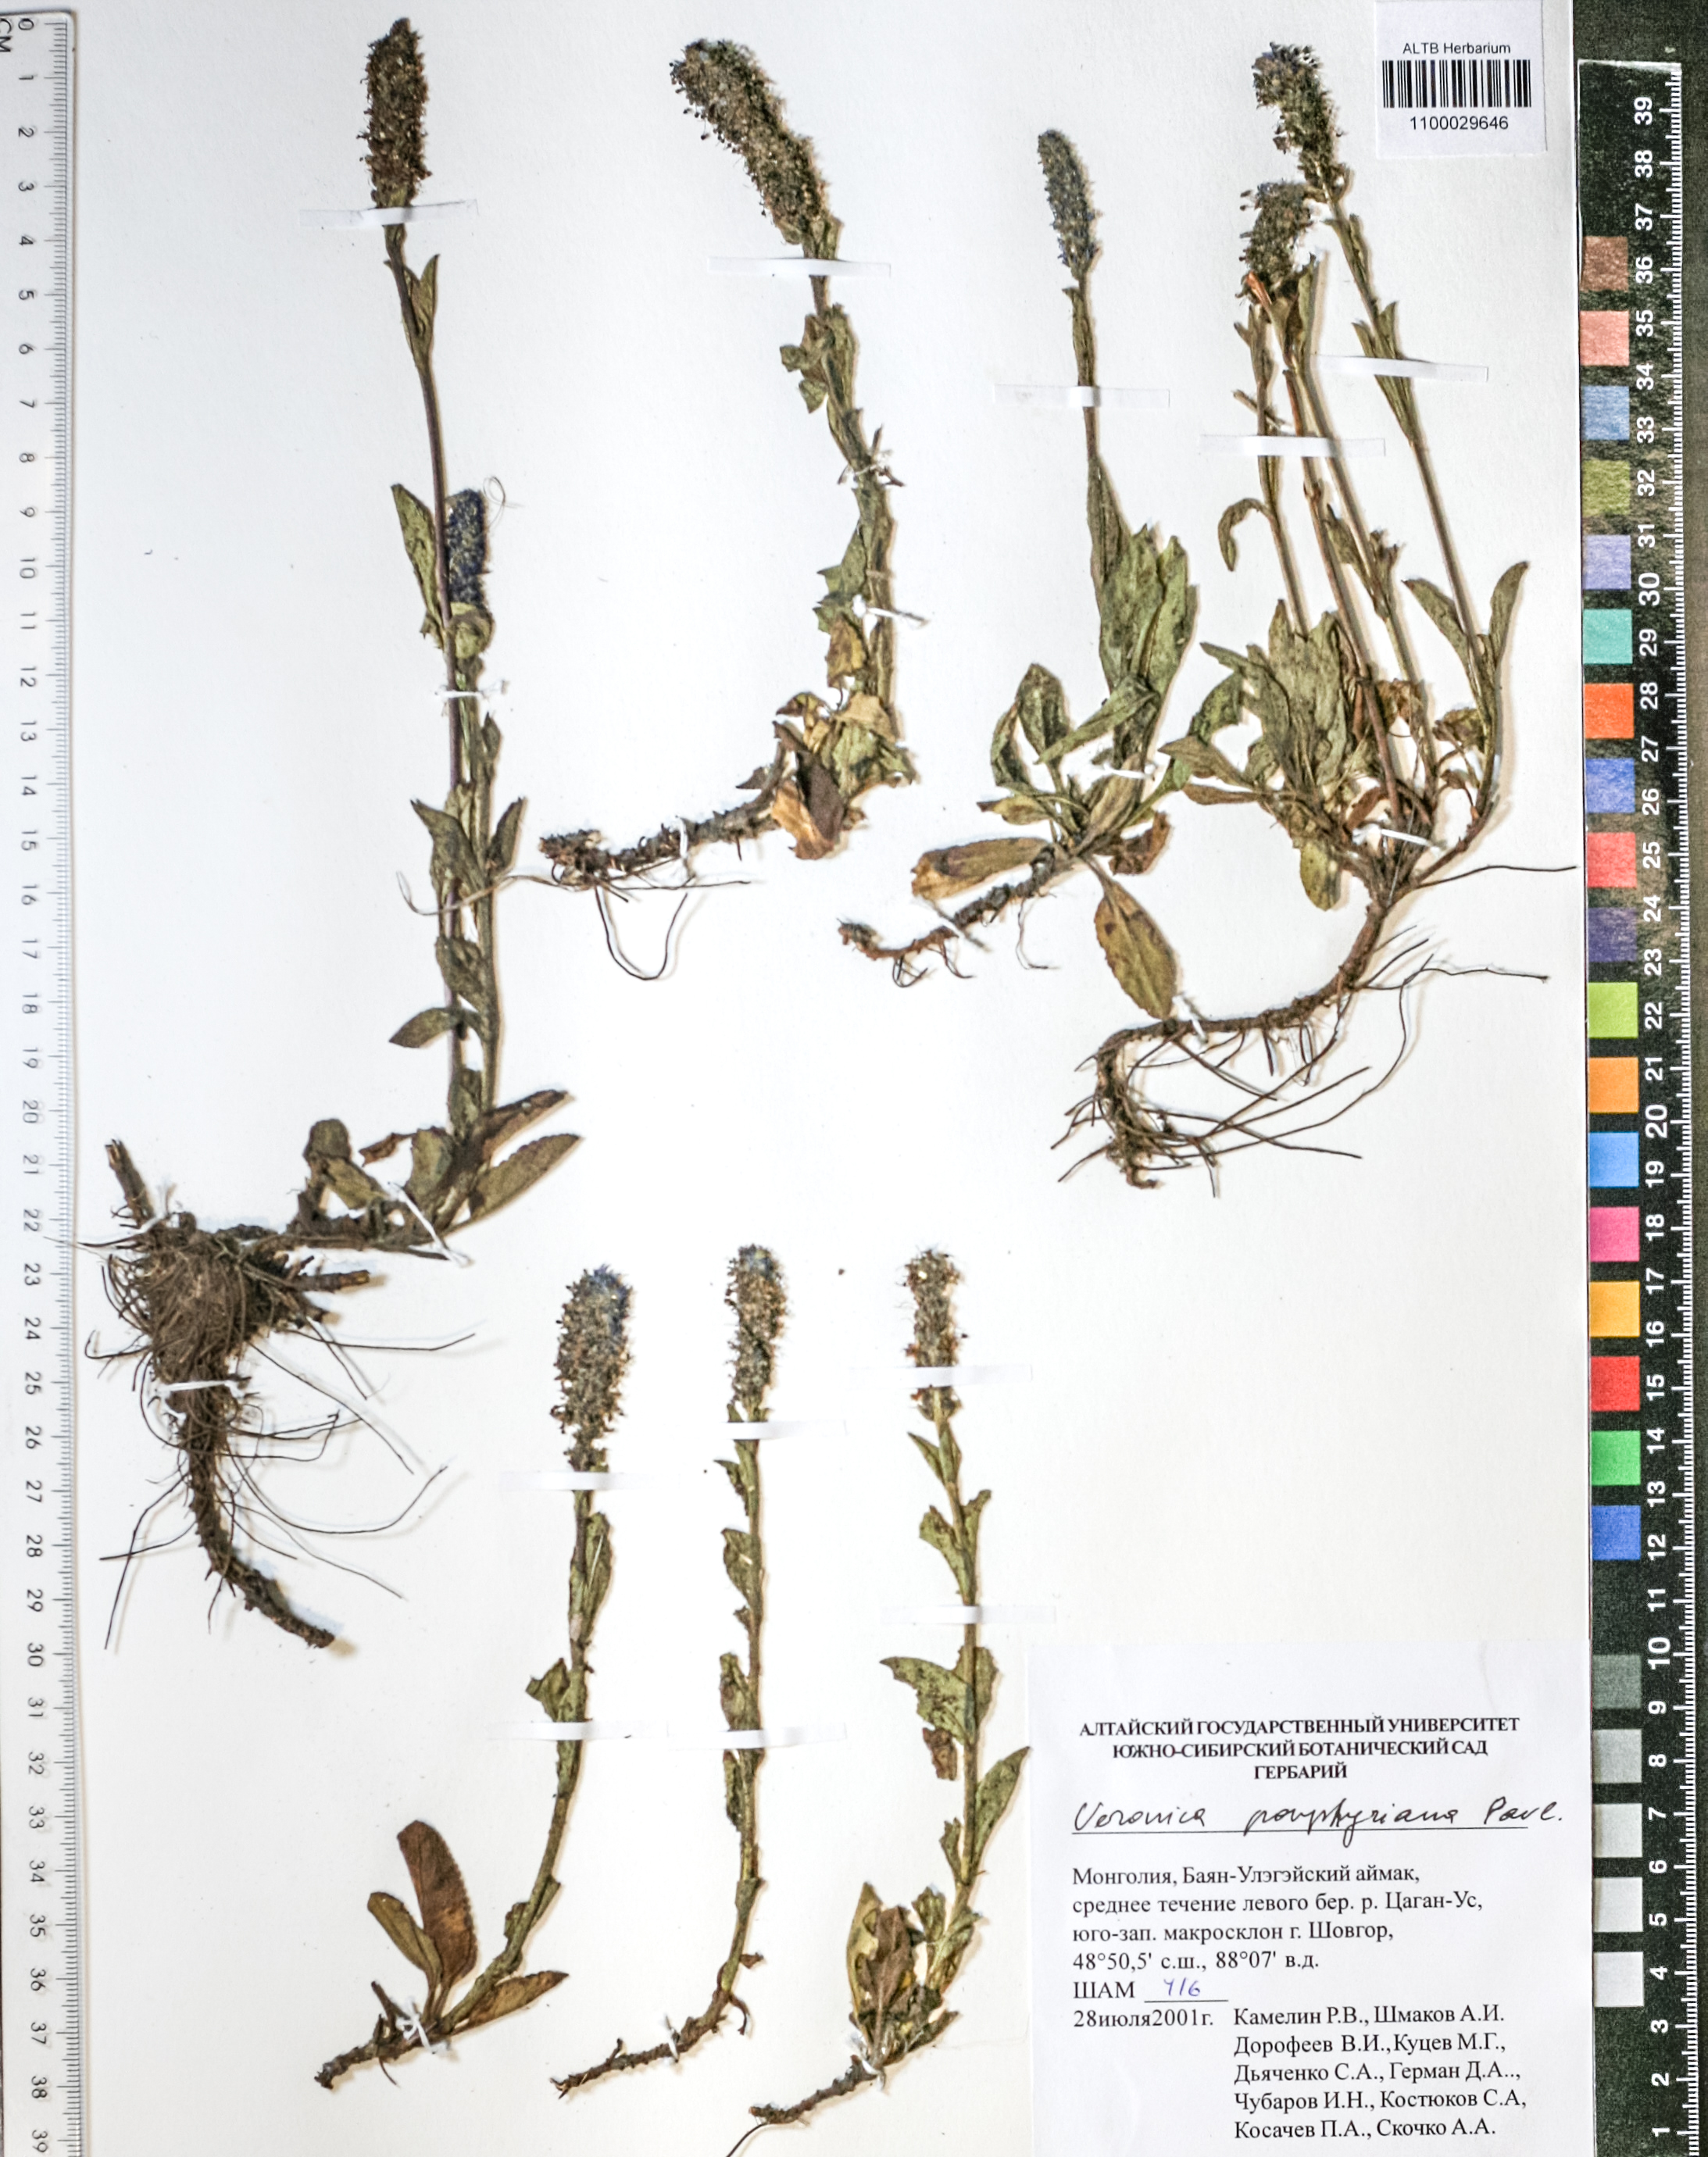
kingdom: Plantae
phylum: Tracheophyta
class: Magnoliopsida
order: Lamiales
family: Plantaginaceae
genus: Veronica
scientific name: Veronica porphyriana
